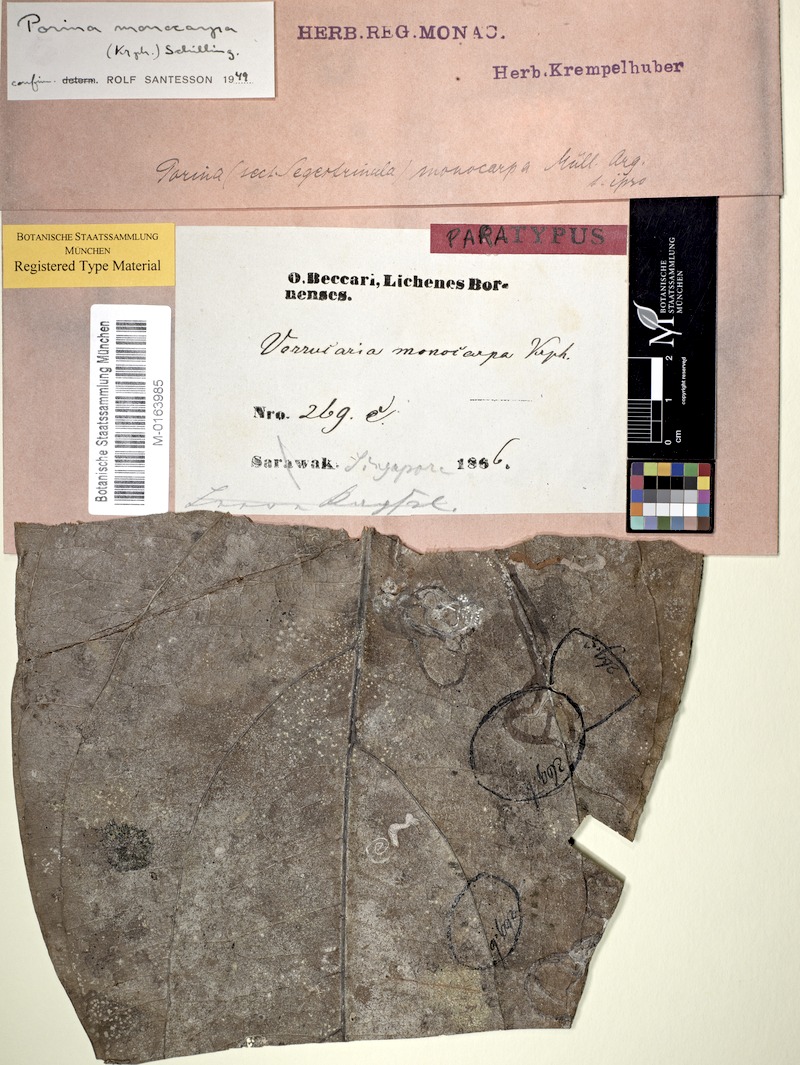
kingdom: Fungi
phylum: Ascomycota
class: Lecanoromycetes
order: Pertusariales
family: Pertusariaceae
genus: Porina
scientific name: Porina
